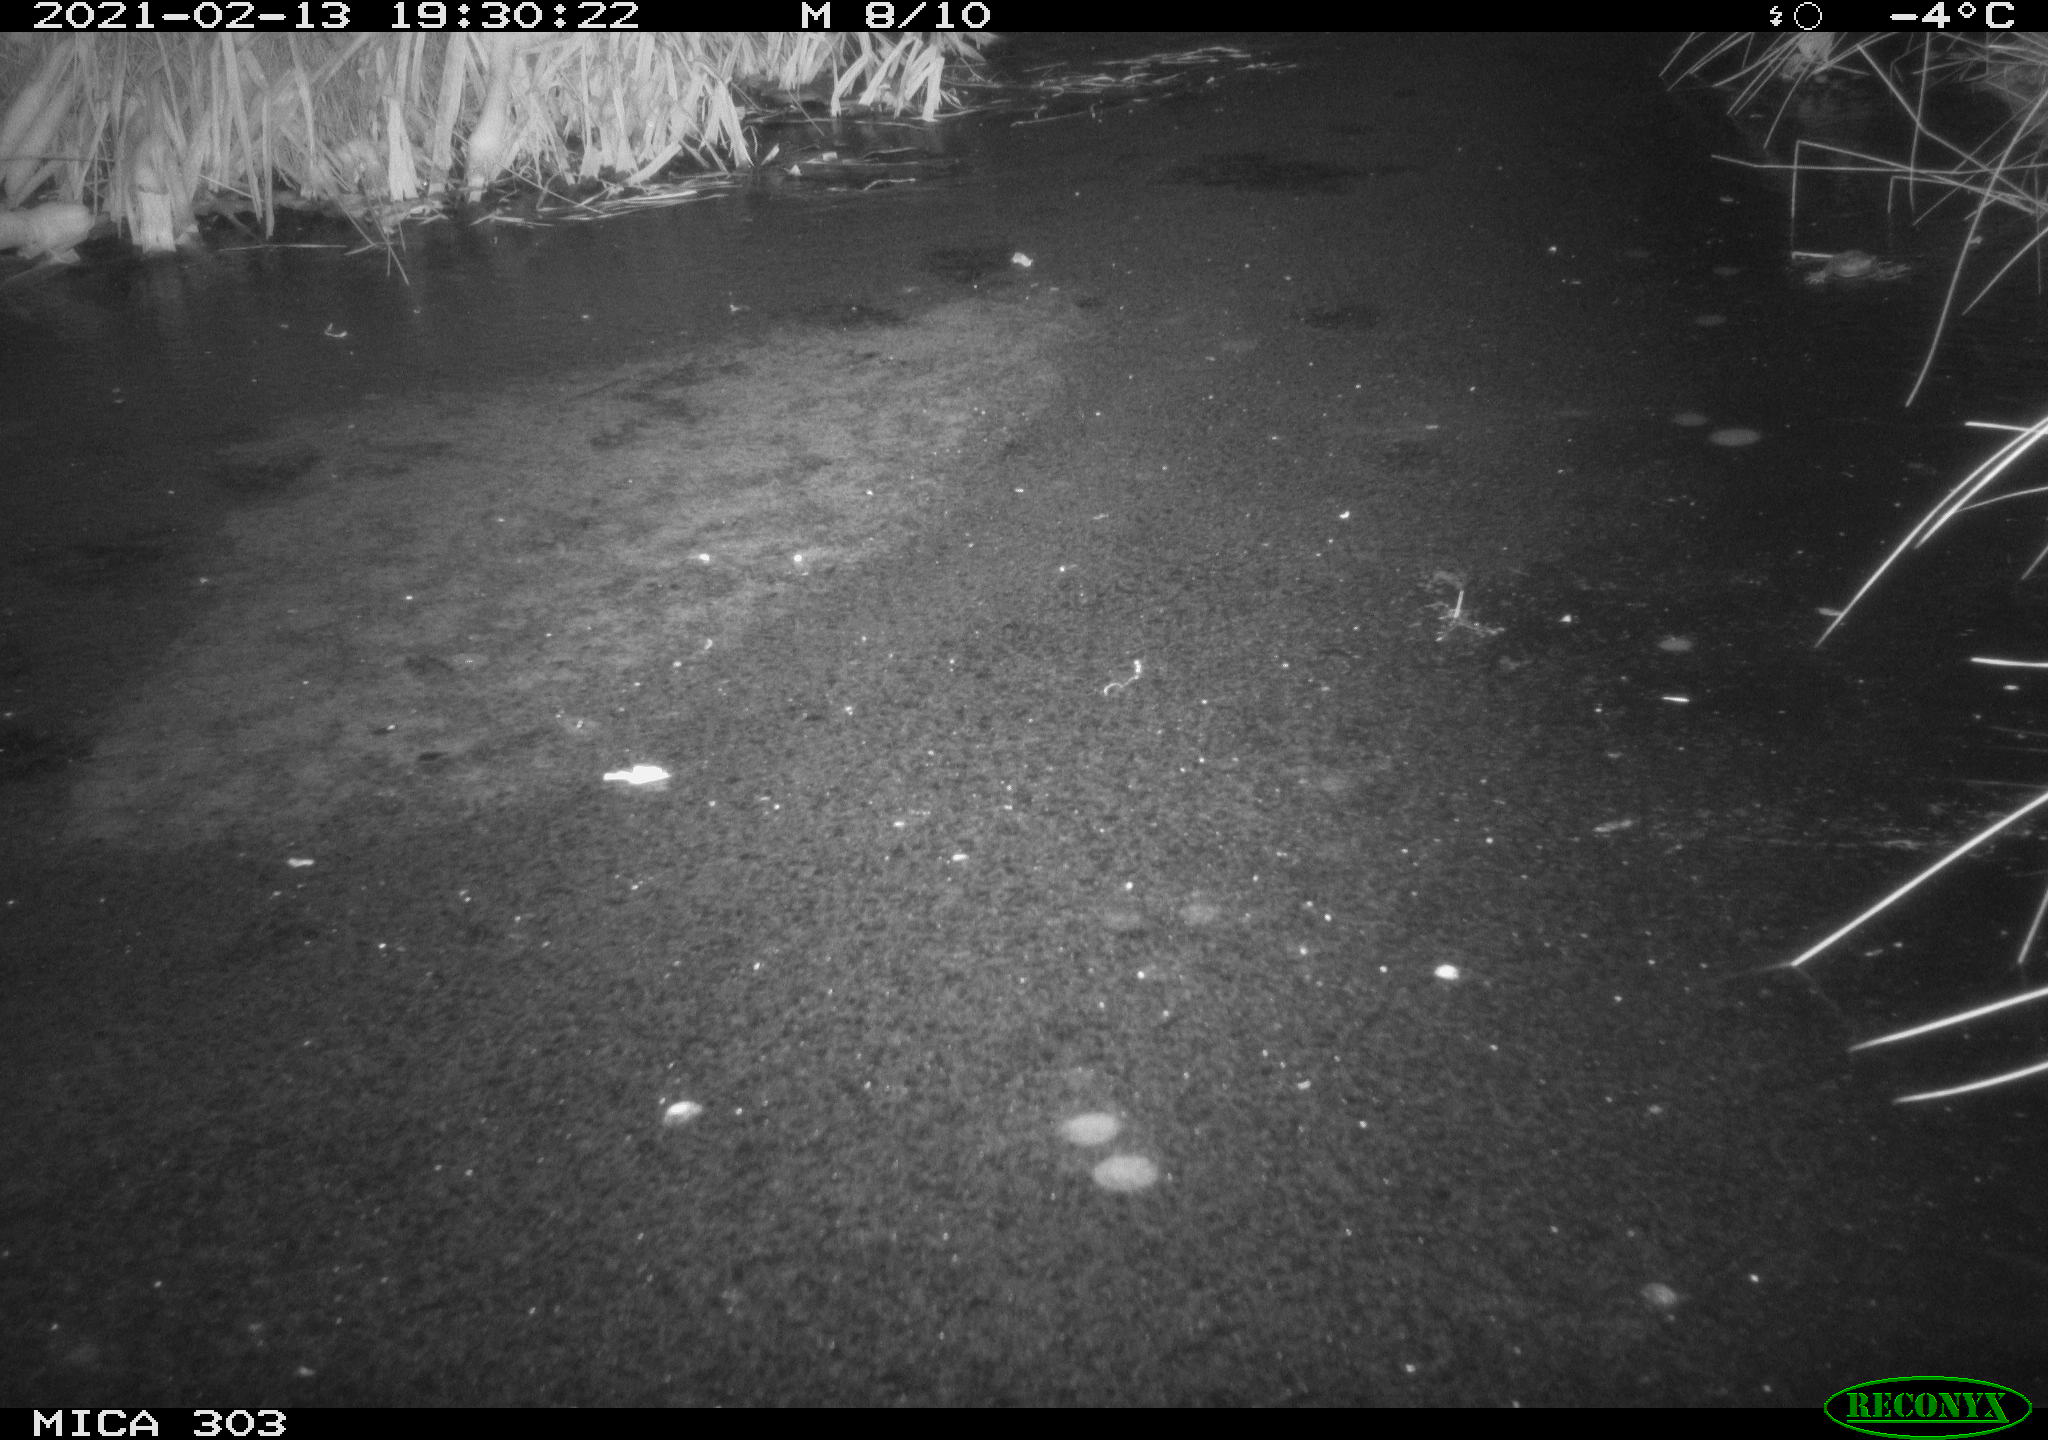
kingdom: Animalia
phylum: Chordata
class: Mammalia
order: Rodentia
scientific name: Rodentia
